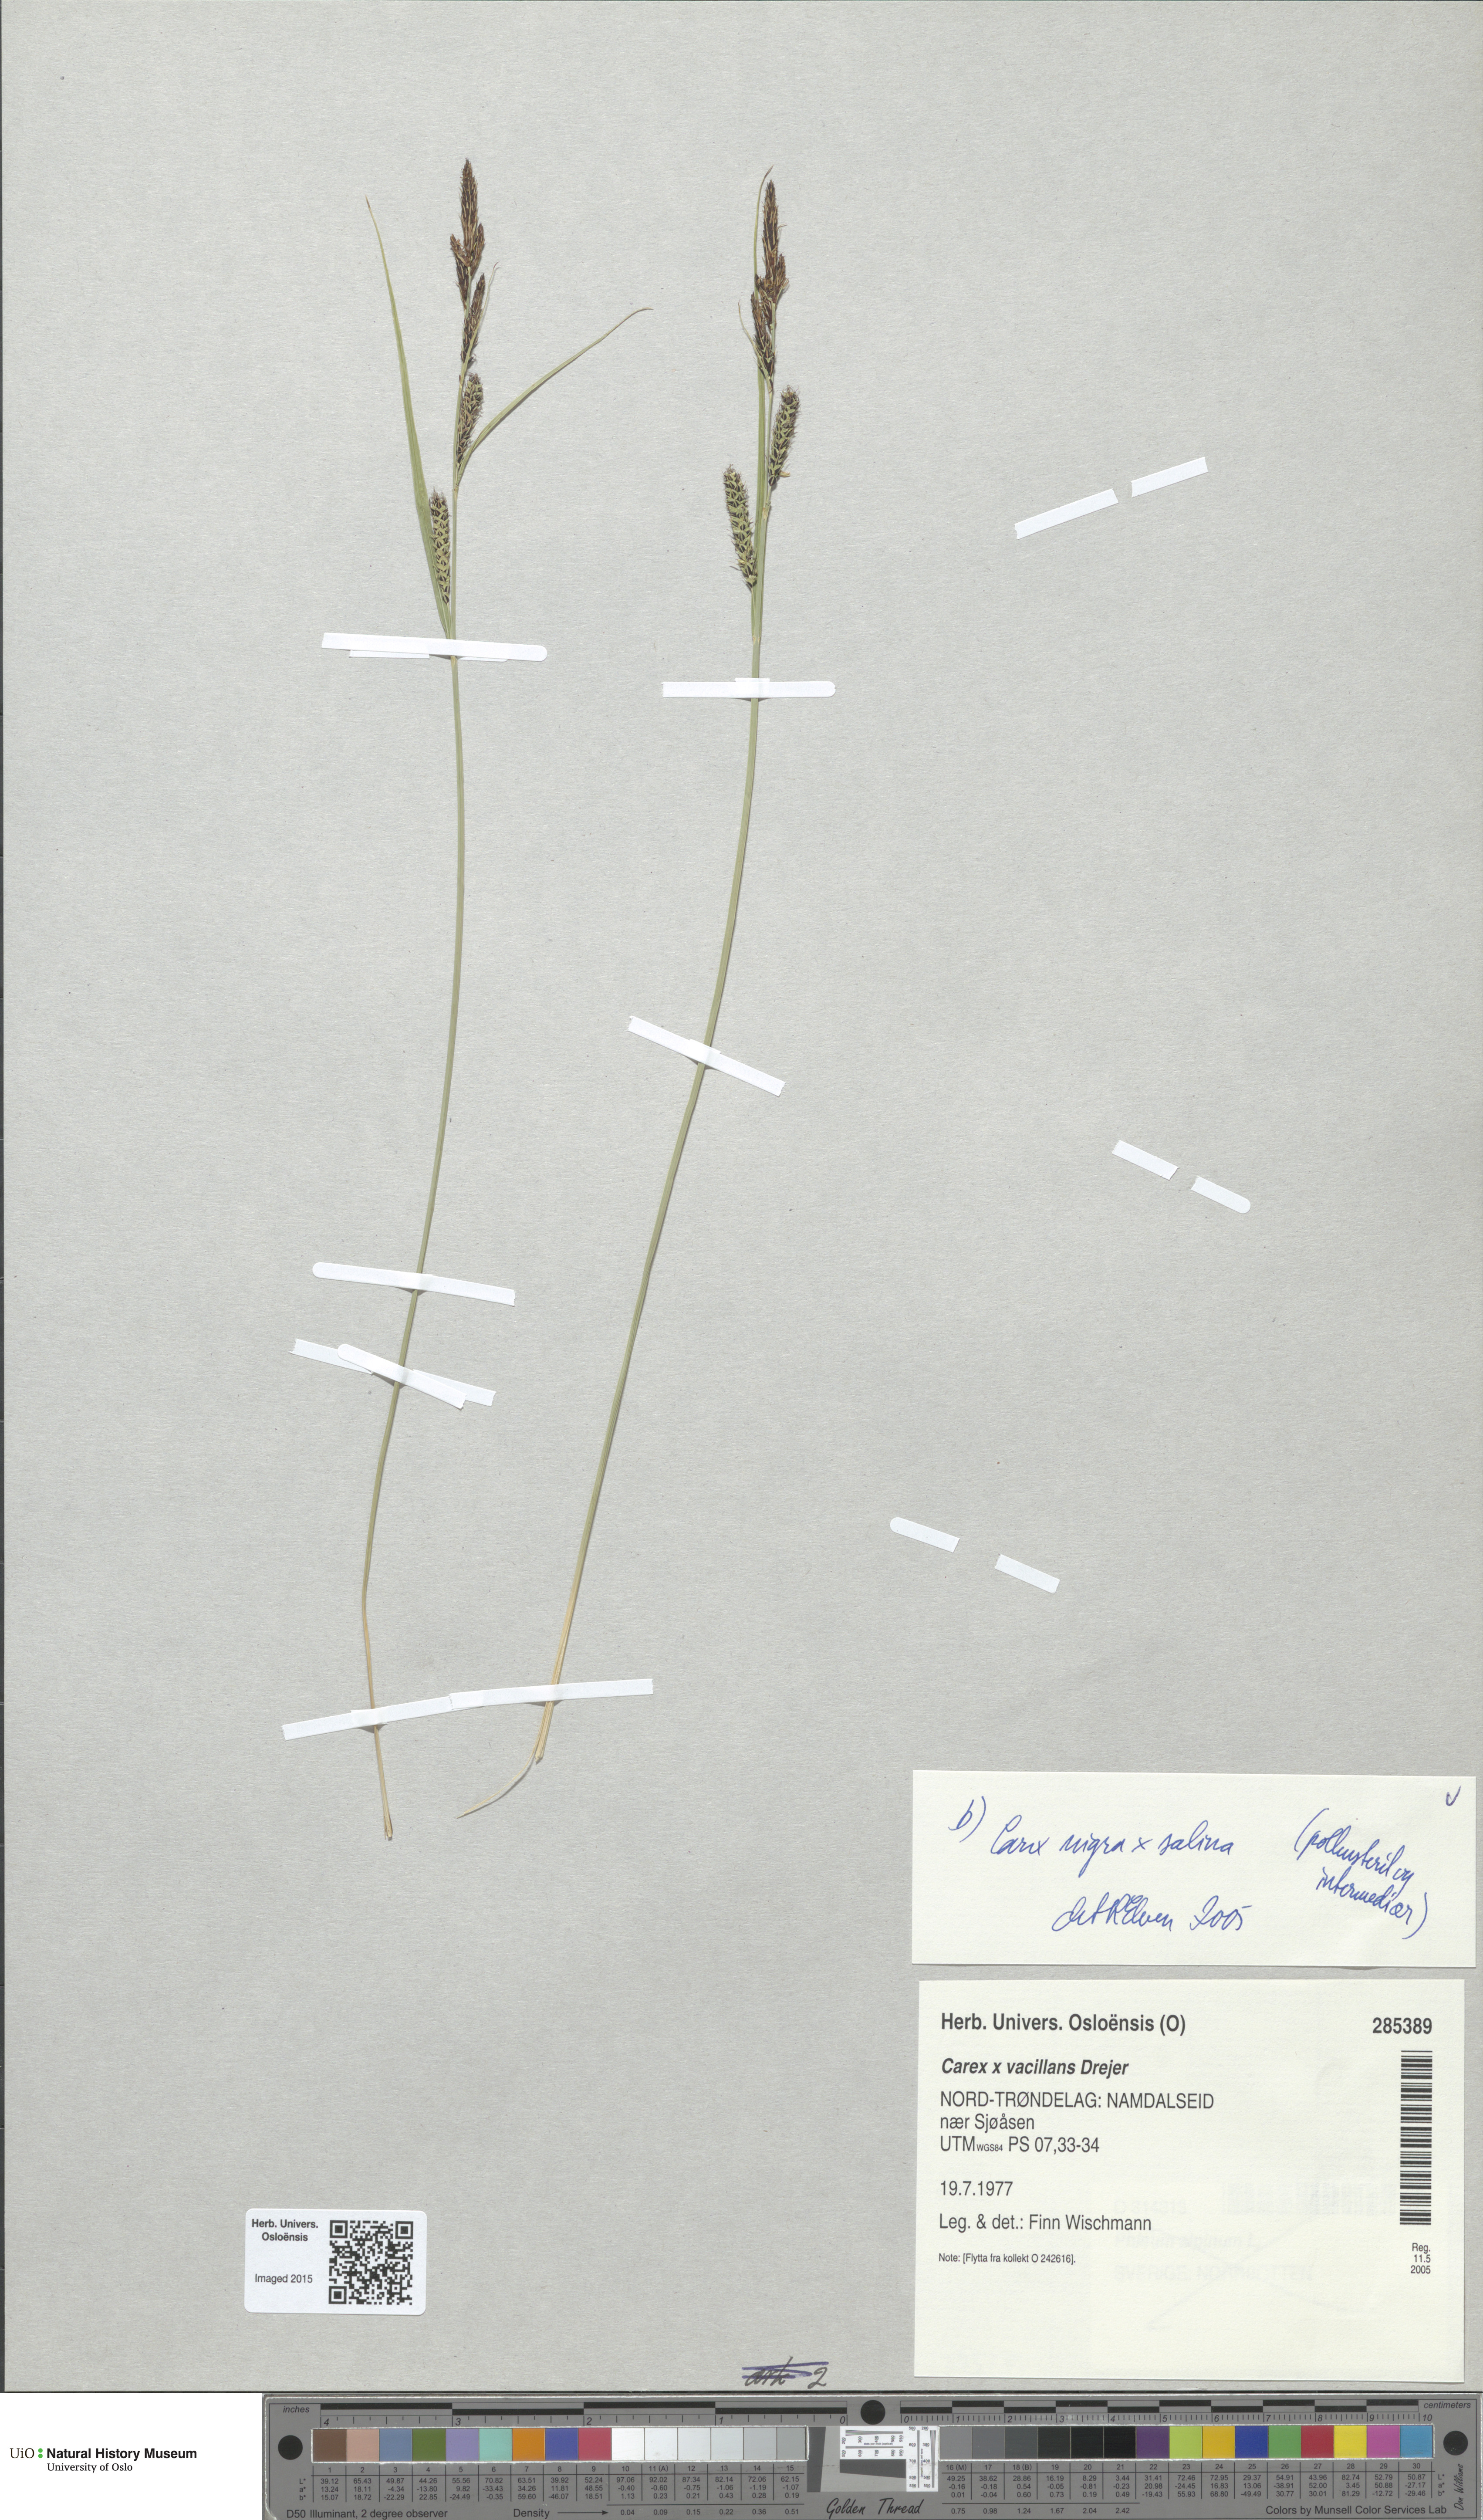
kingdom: Plantae
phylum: Tracheophyta
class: Liliopsida
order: Poales
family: Cyperaceae
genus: Carex
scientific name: Carex
